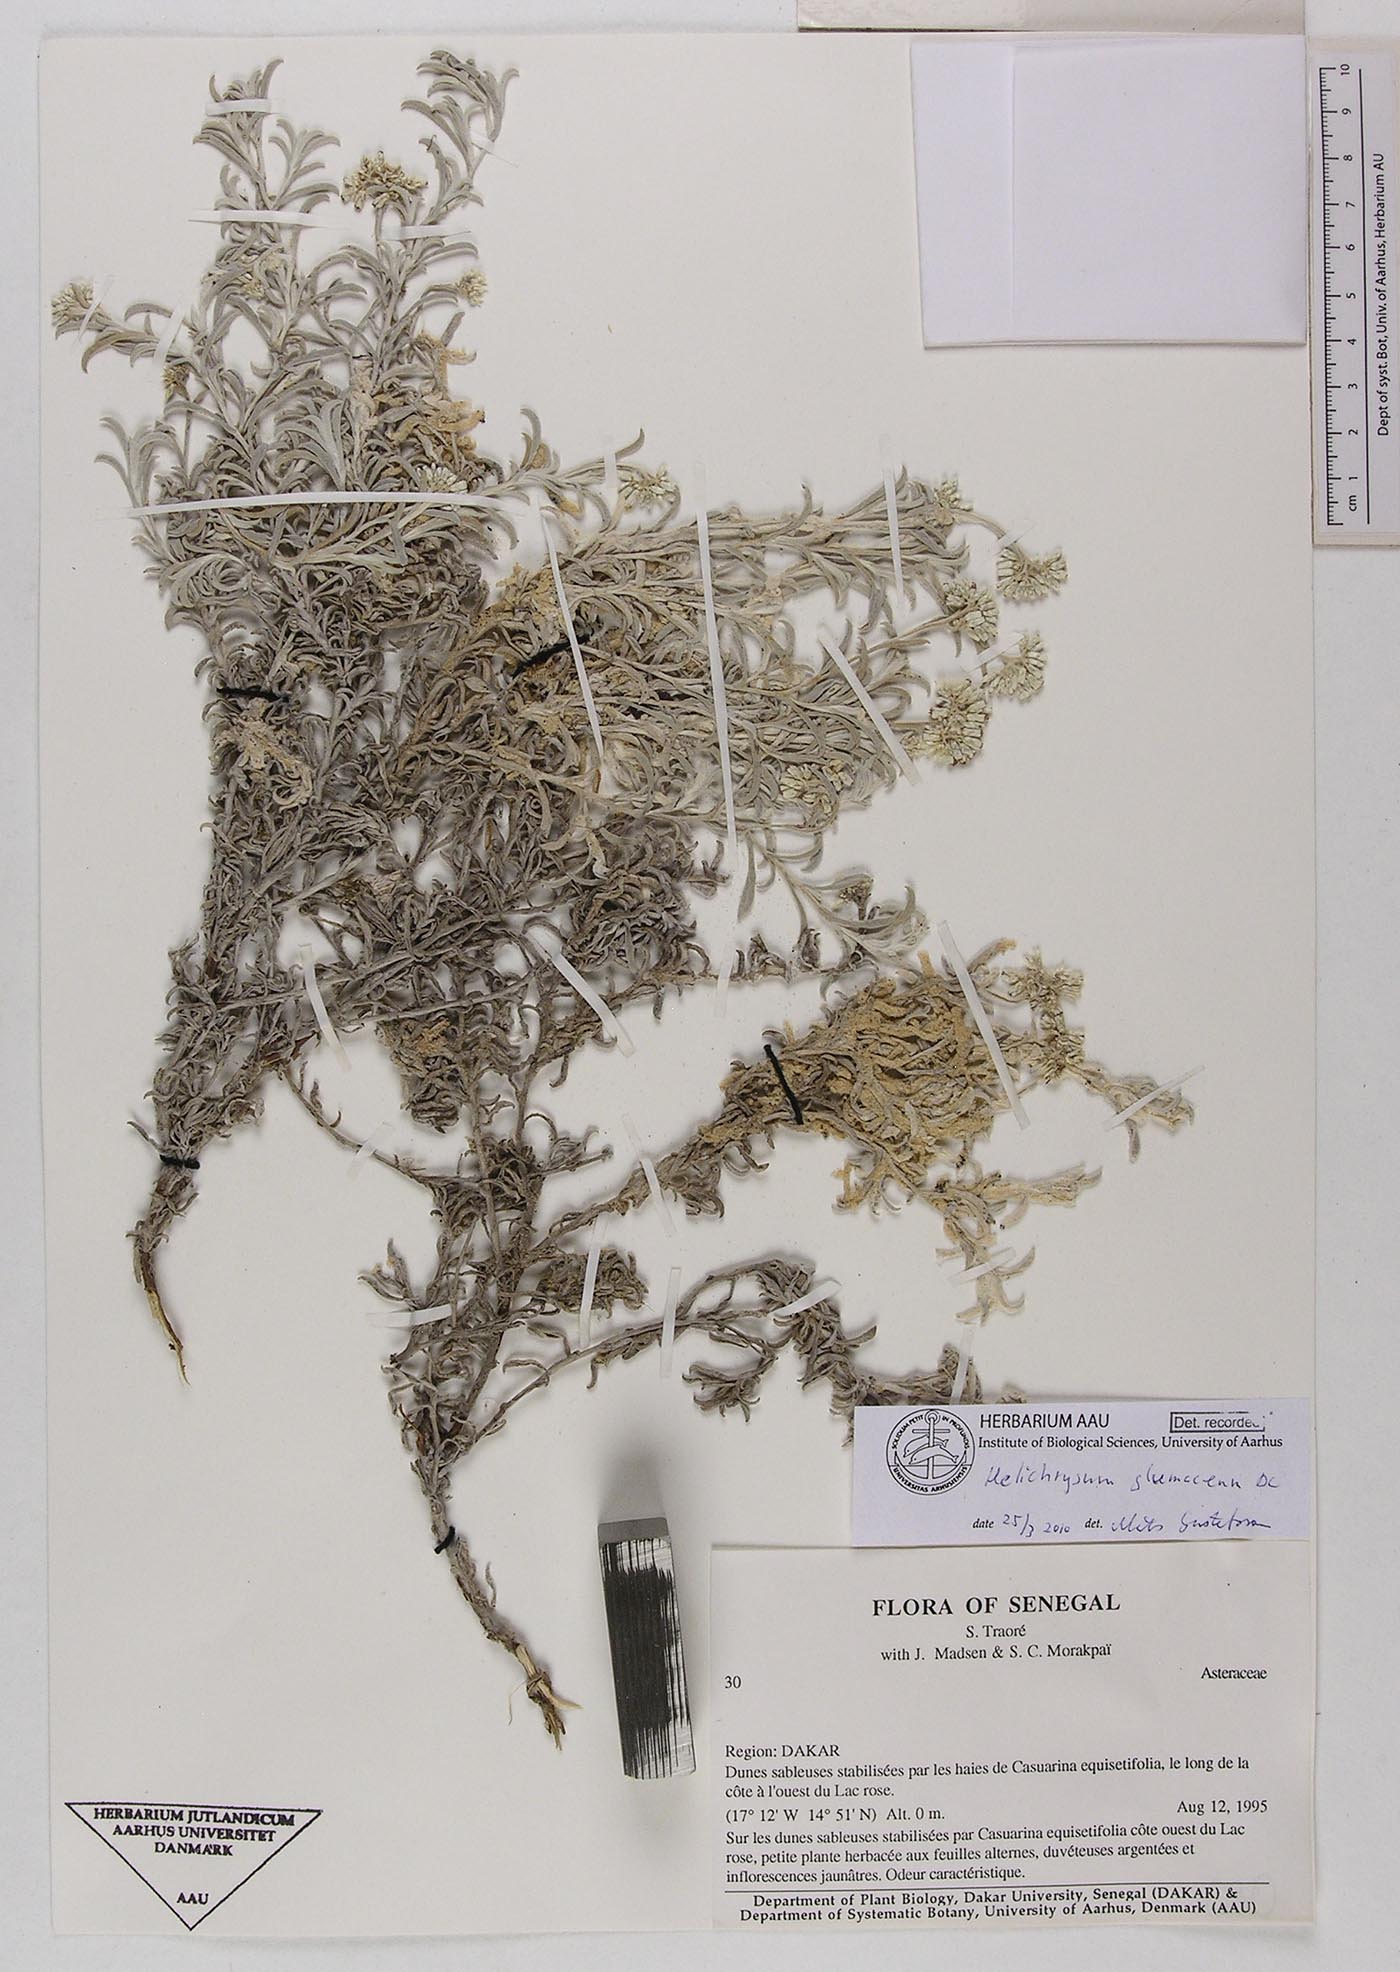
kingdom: Plantae
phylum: Tracheophyta
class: Magnoliopsida
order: Asterales
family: Asteraceae
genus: Helichrysum
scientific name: Helichrysum glumaceum
